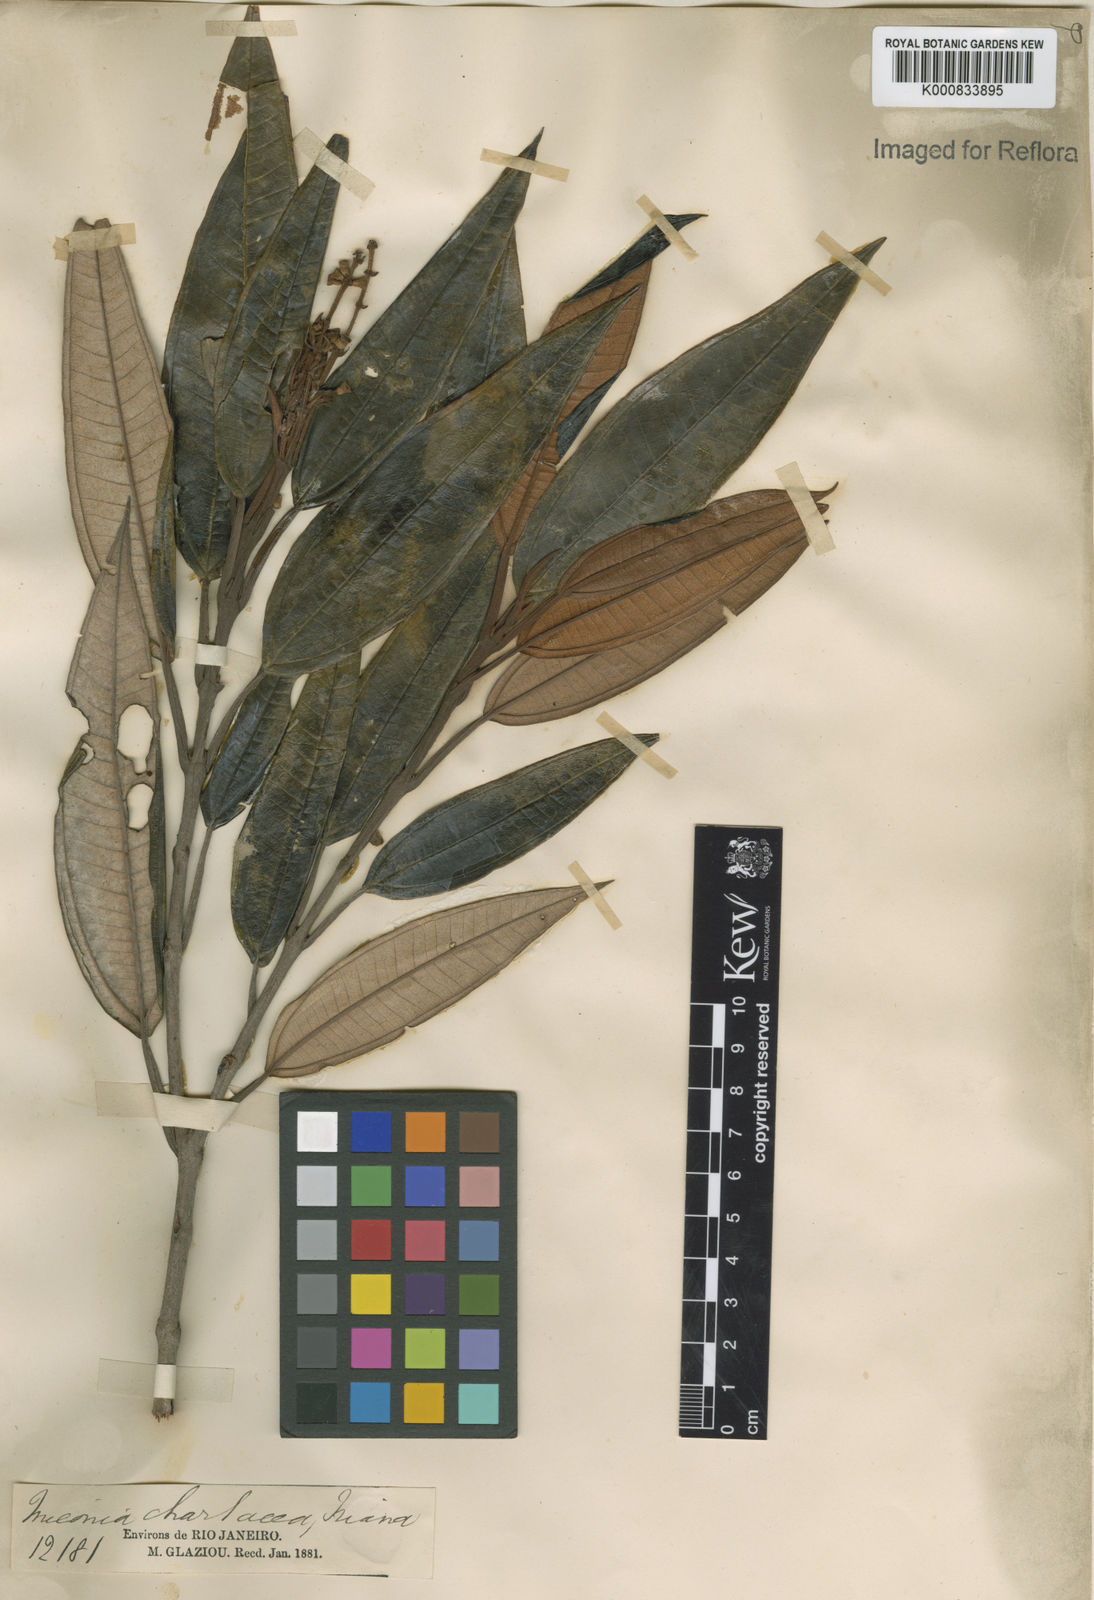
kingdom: Plantae
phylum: Tracheophyta
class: Magnoliopsida
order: Myrtales
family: Melastomataceae
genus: Miconia
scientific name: Miconia chartacea
